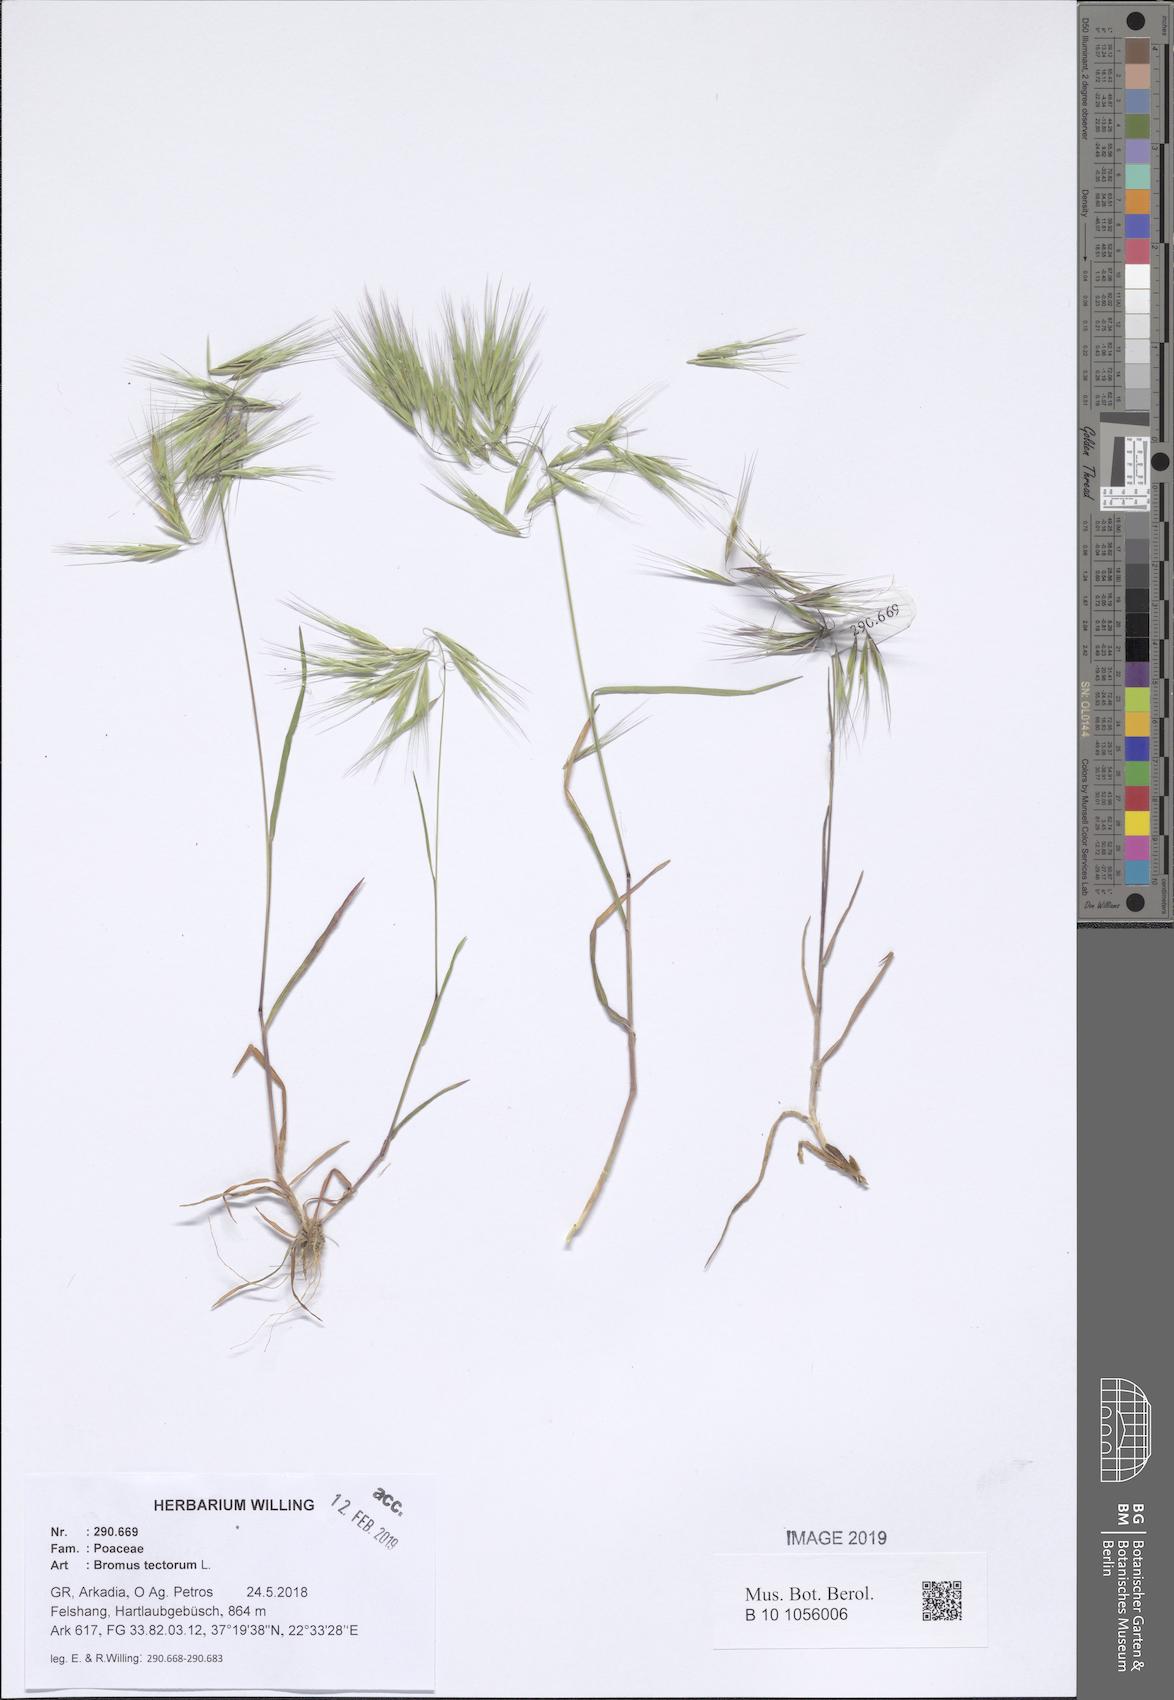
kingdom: Plantae
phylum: Tracheophyta
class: Liliopsida
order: Poales
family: Poaceae
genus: Bromus
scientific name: Bromus tectorum
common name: Cheatgrass
